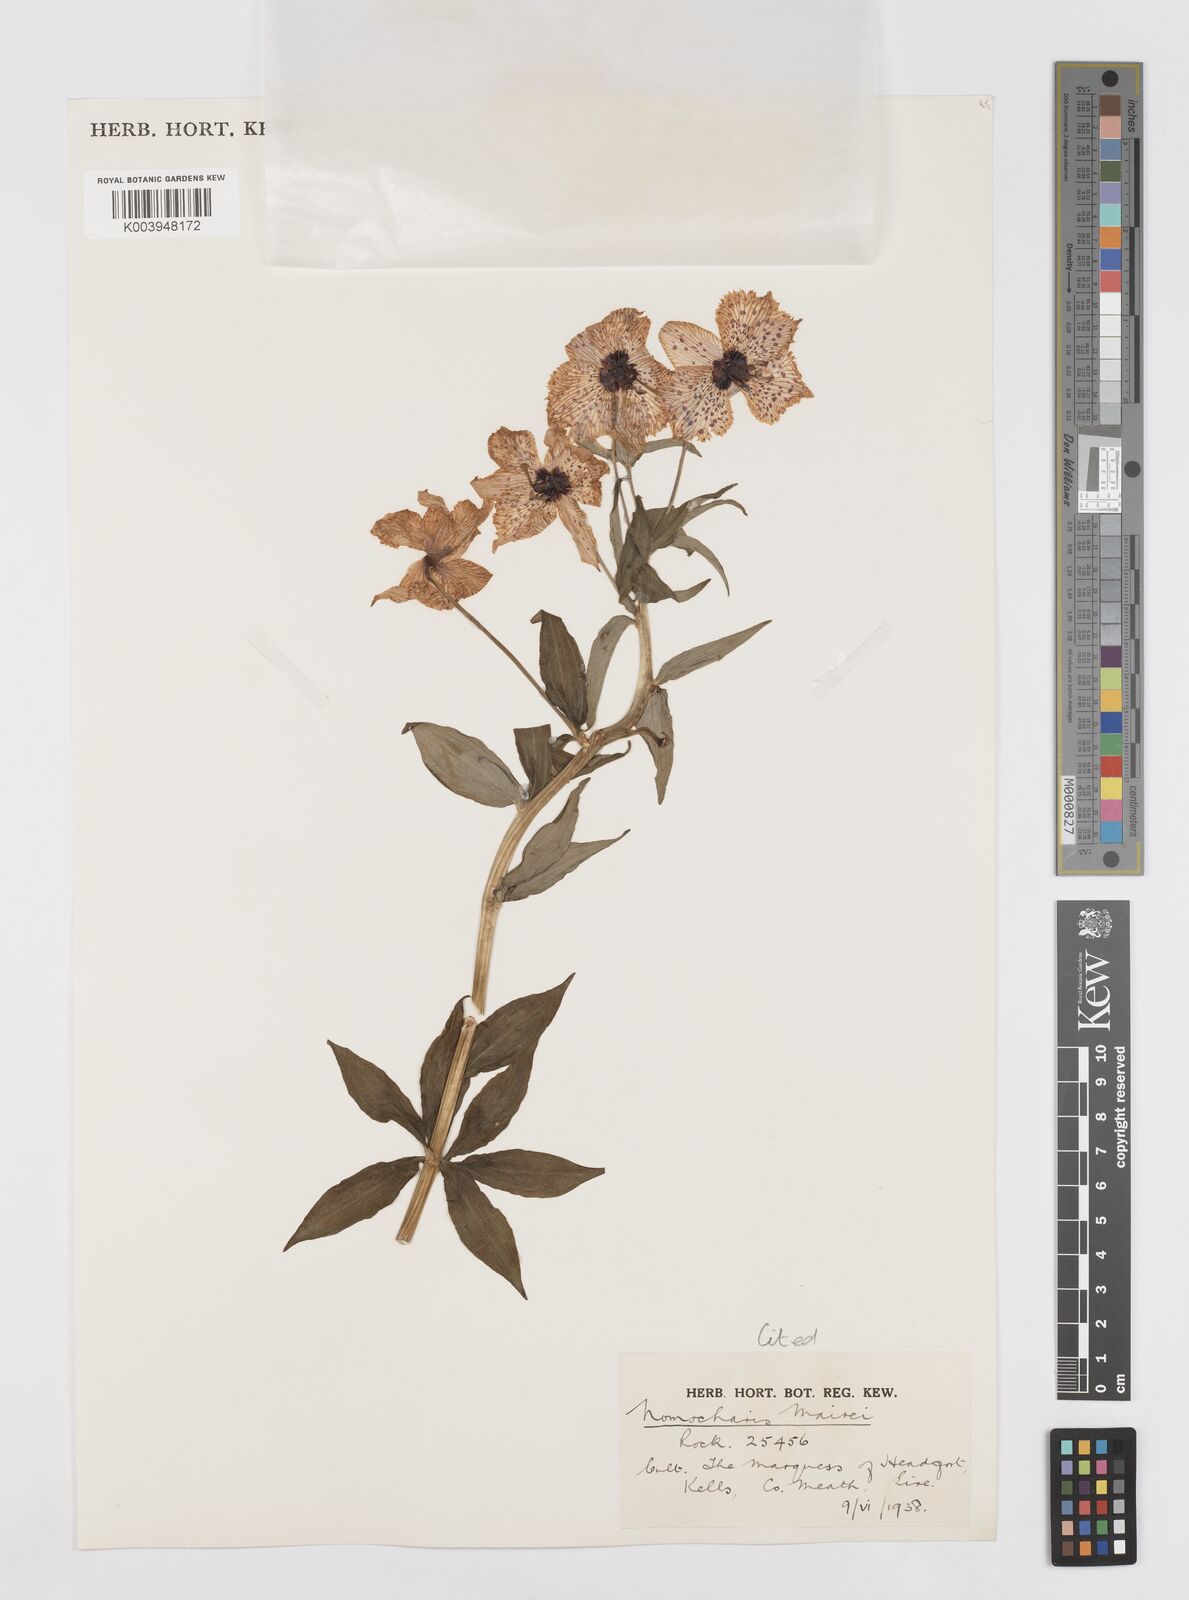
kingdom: Plantae
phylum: Tracheophyta
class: Liliopsida
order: Liliales
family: Liliaceae
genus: Lilium
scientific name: Lilium pardanthinum
